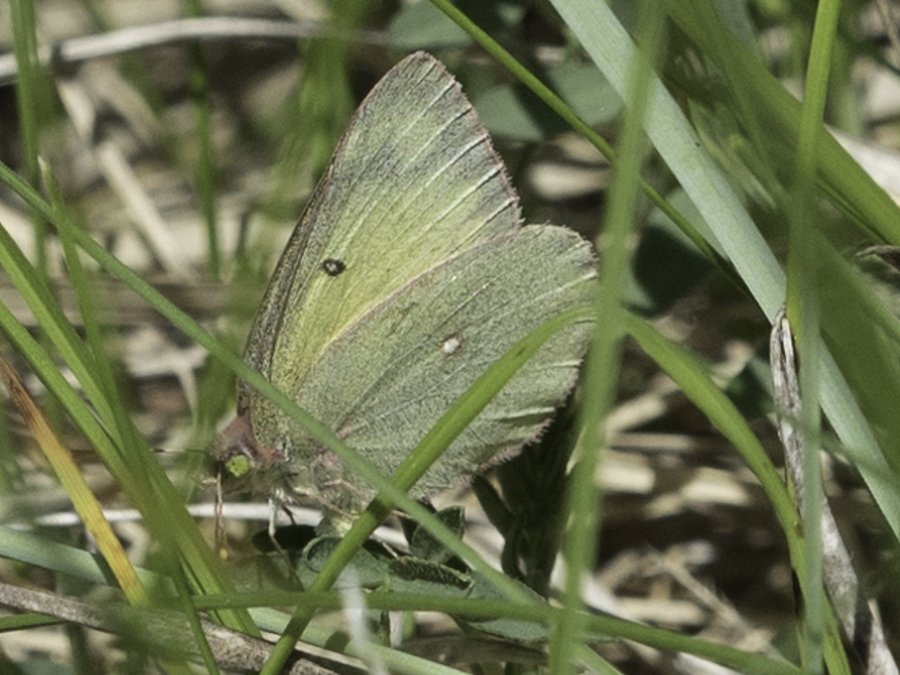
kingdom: Animalia
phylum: Arthropoda
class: Insecta
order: Lepidoptera
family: Pieridae
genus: Colias
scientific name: Colias philodice
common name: Clouded Sulphur
